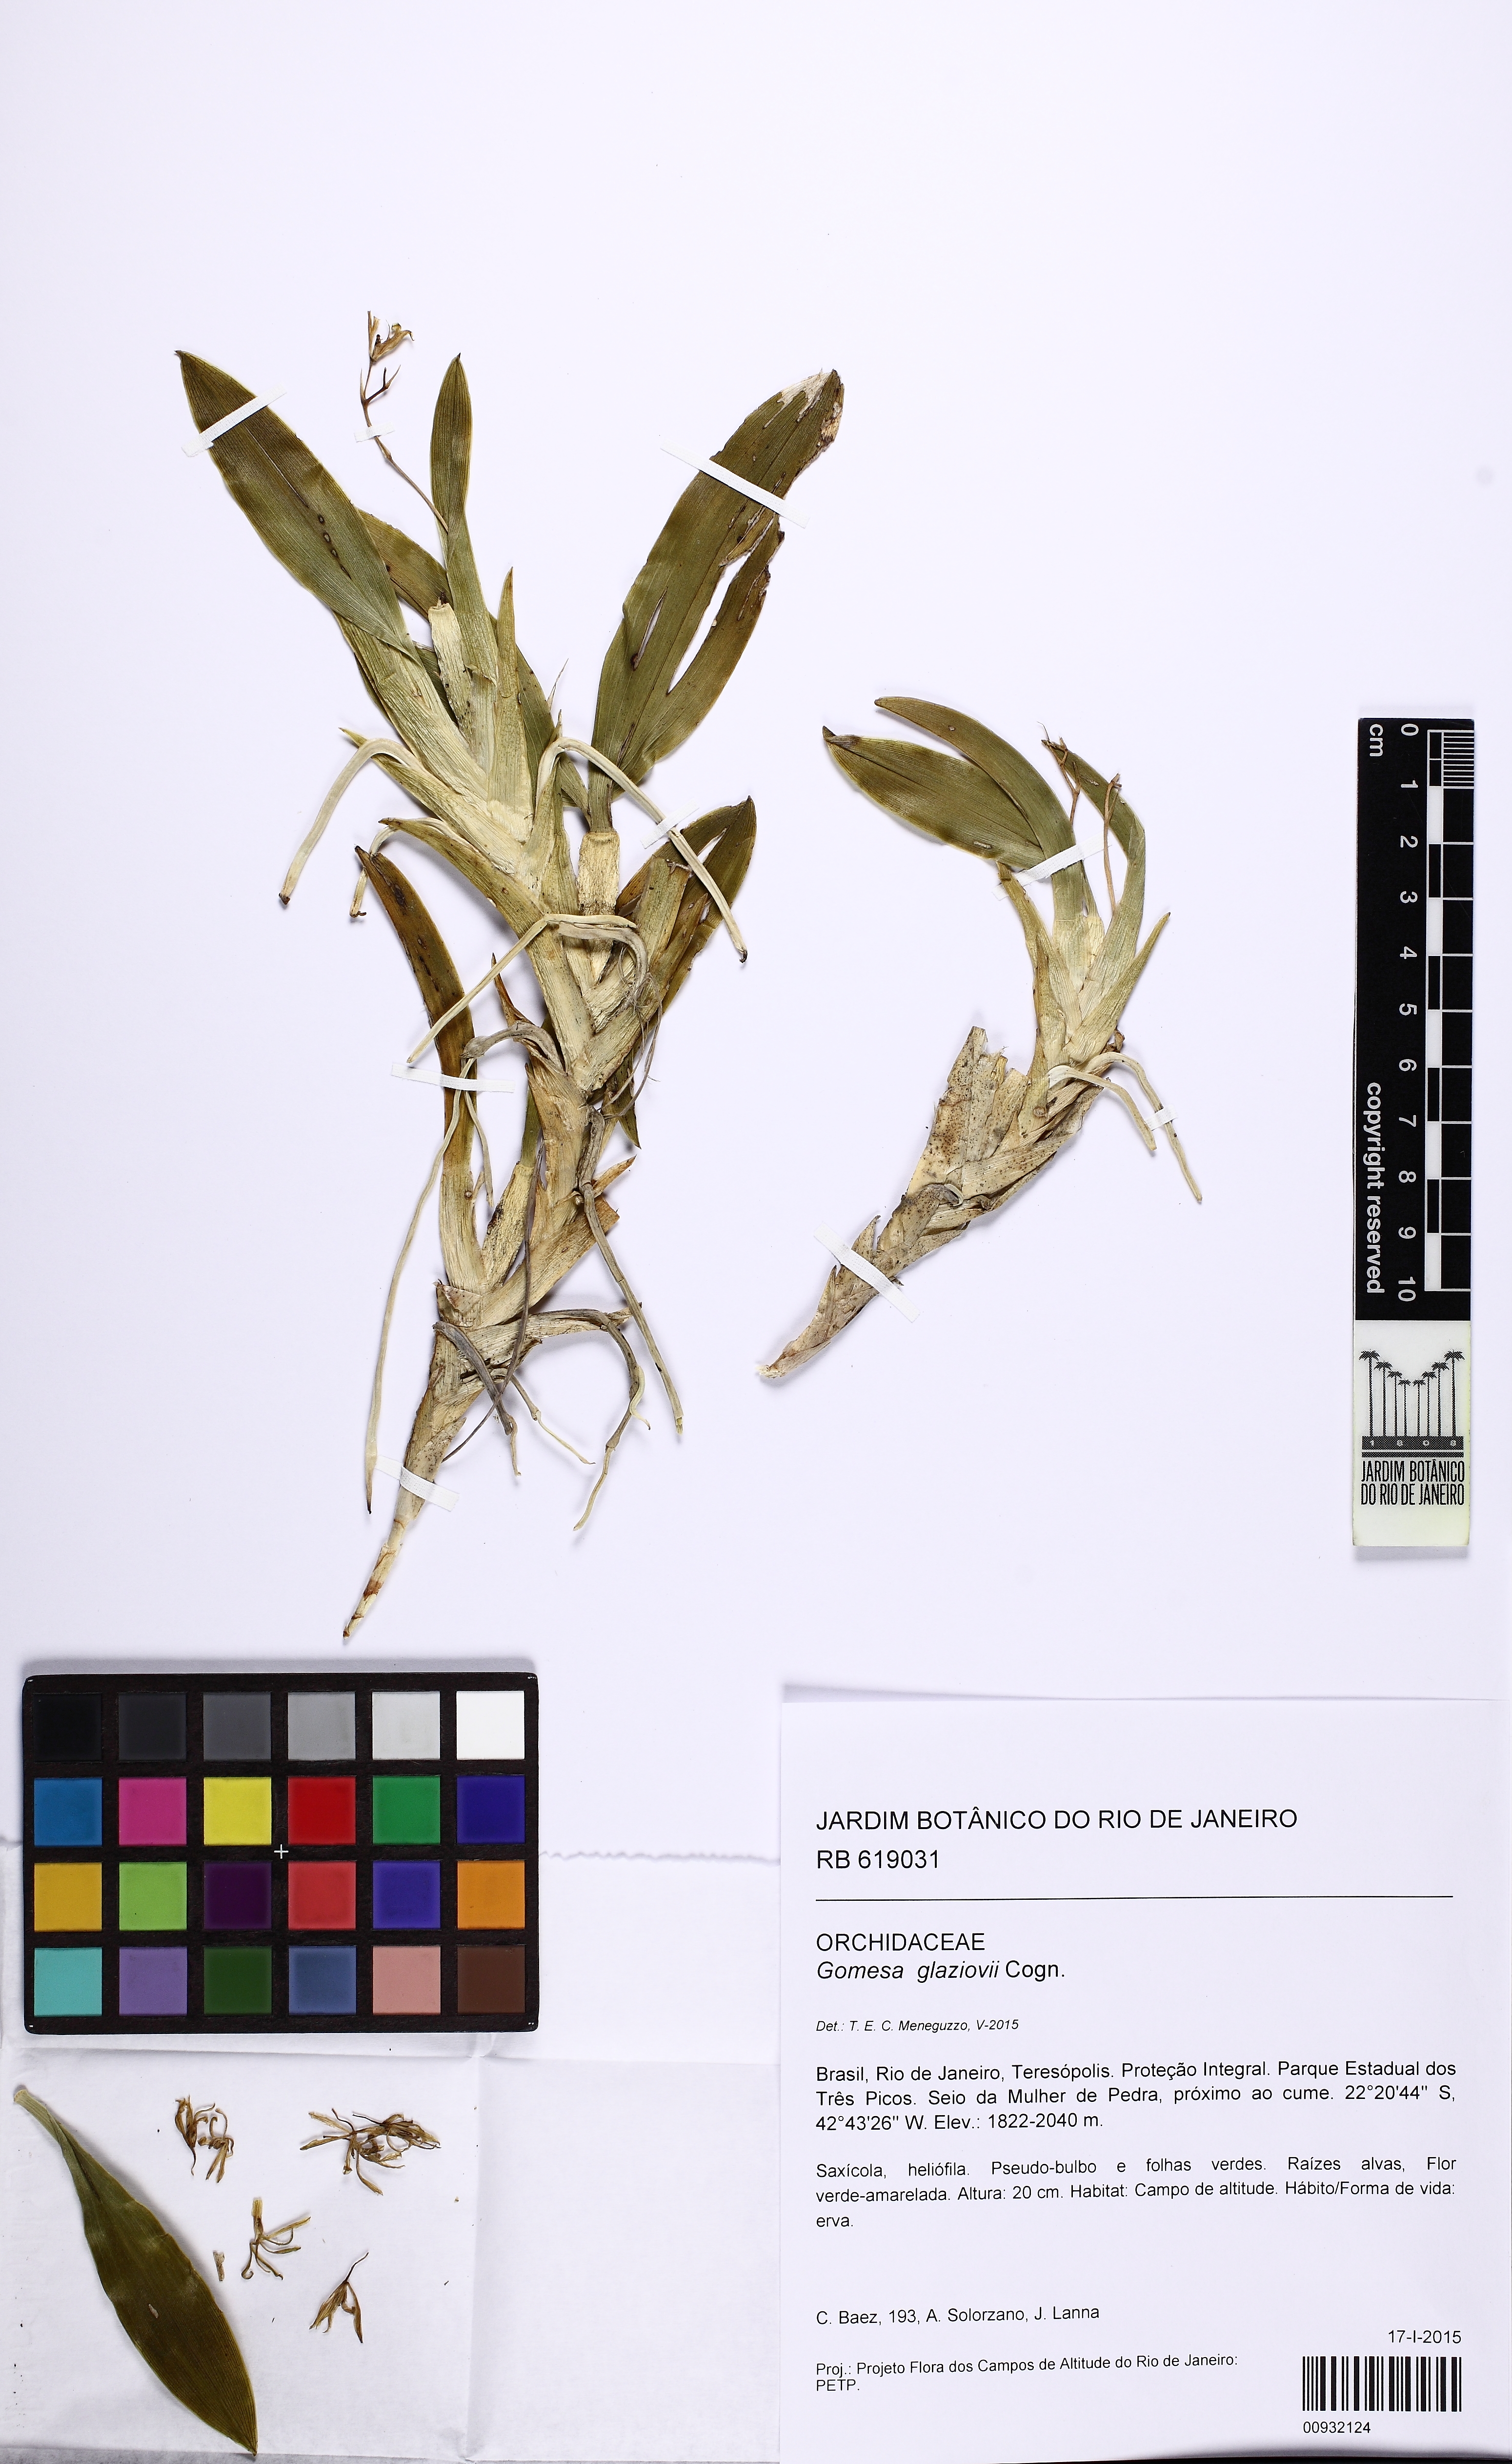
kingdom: Plantae
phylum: Tracheophyta
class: Liliopsida
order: Asparagales
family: Orchidaceae
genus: Gomesa
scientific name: Gomesa glaziovii
